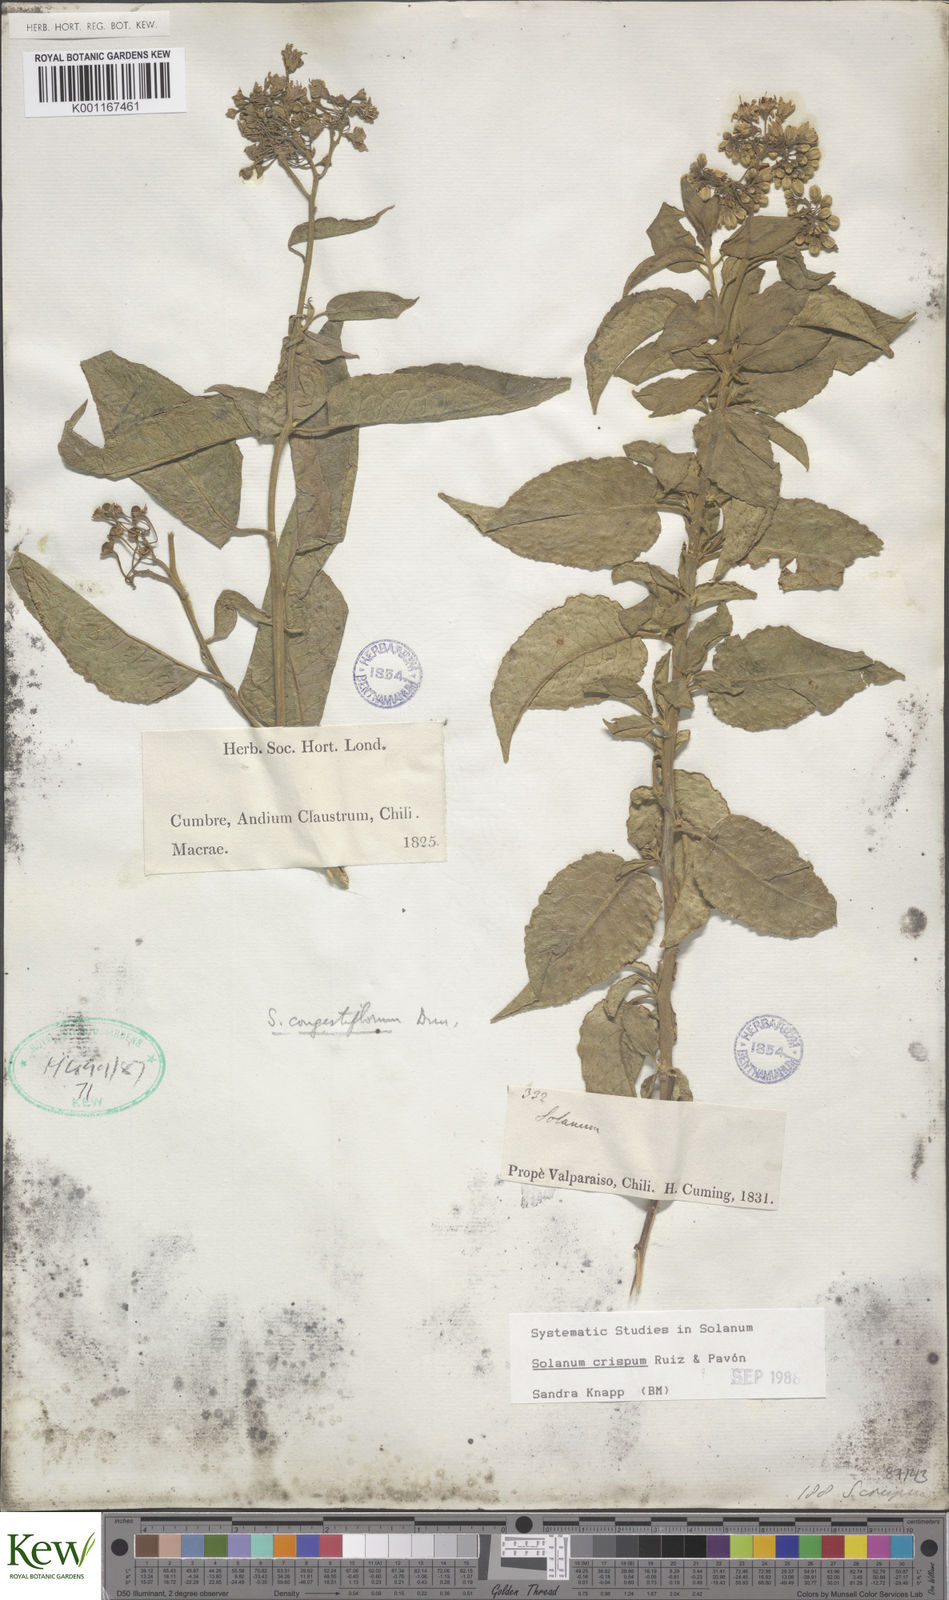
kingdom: Plantae
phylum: Tracheophyta
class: Magnoliopsida
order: Solanales
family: Solanaceae
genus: Solanum
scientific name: Solanum crispum
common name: Chilean nightshade
